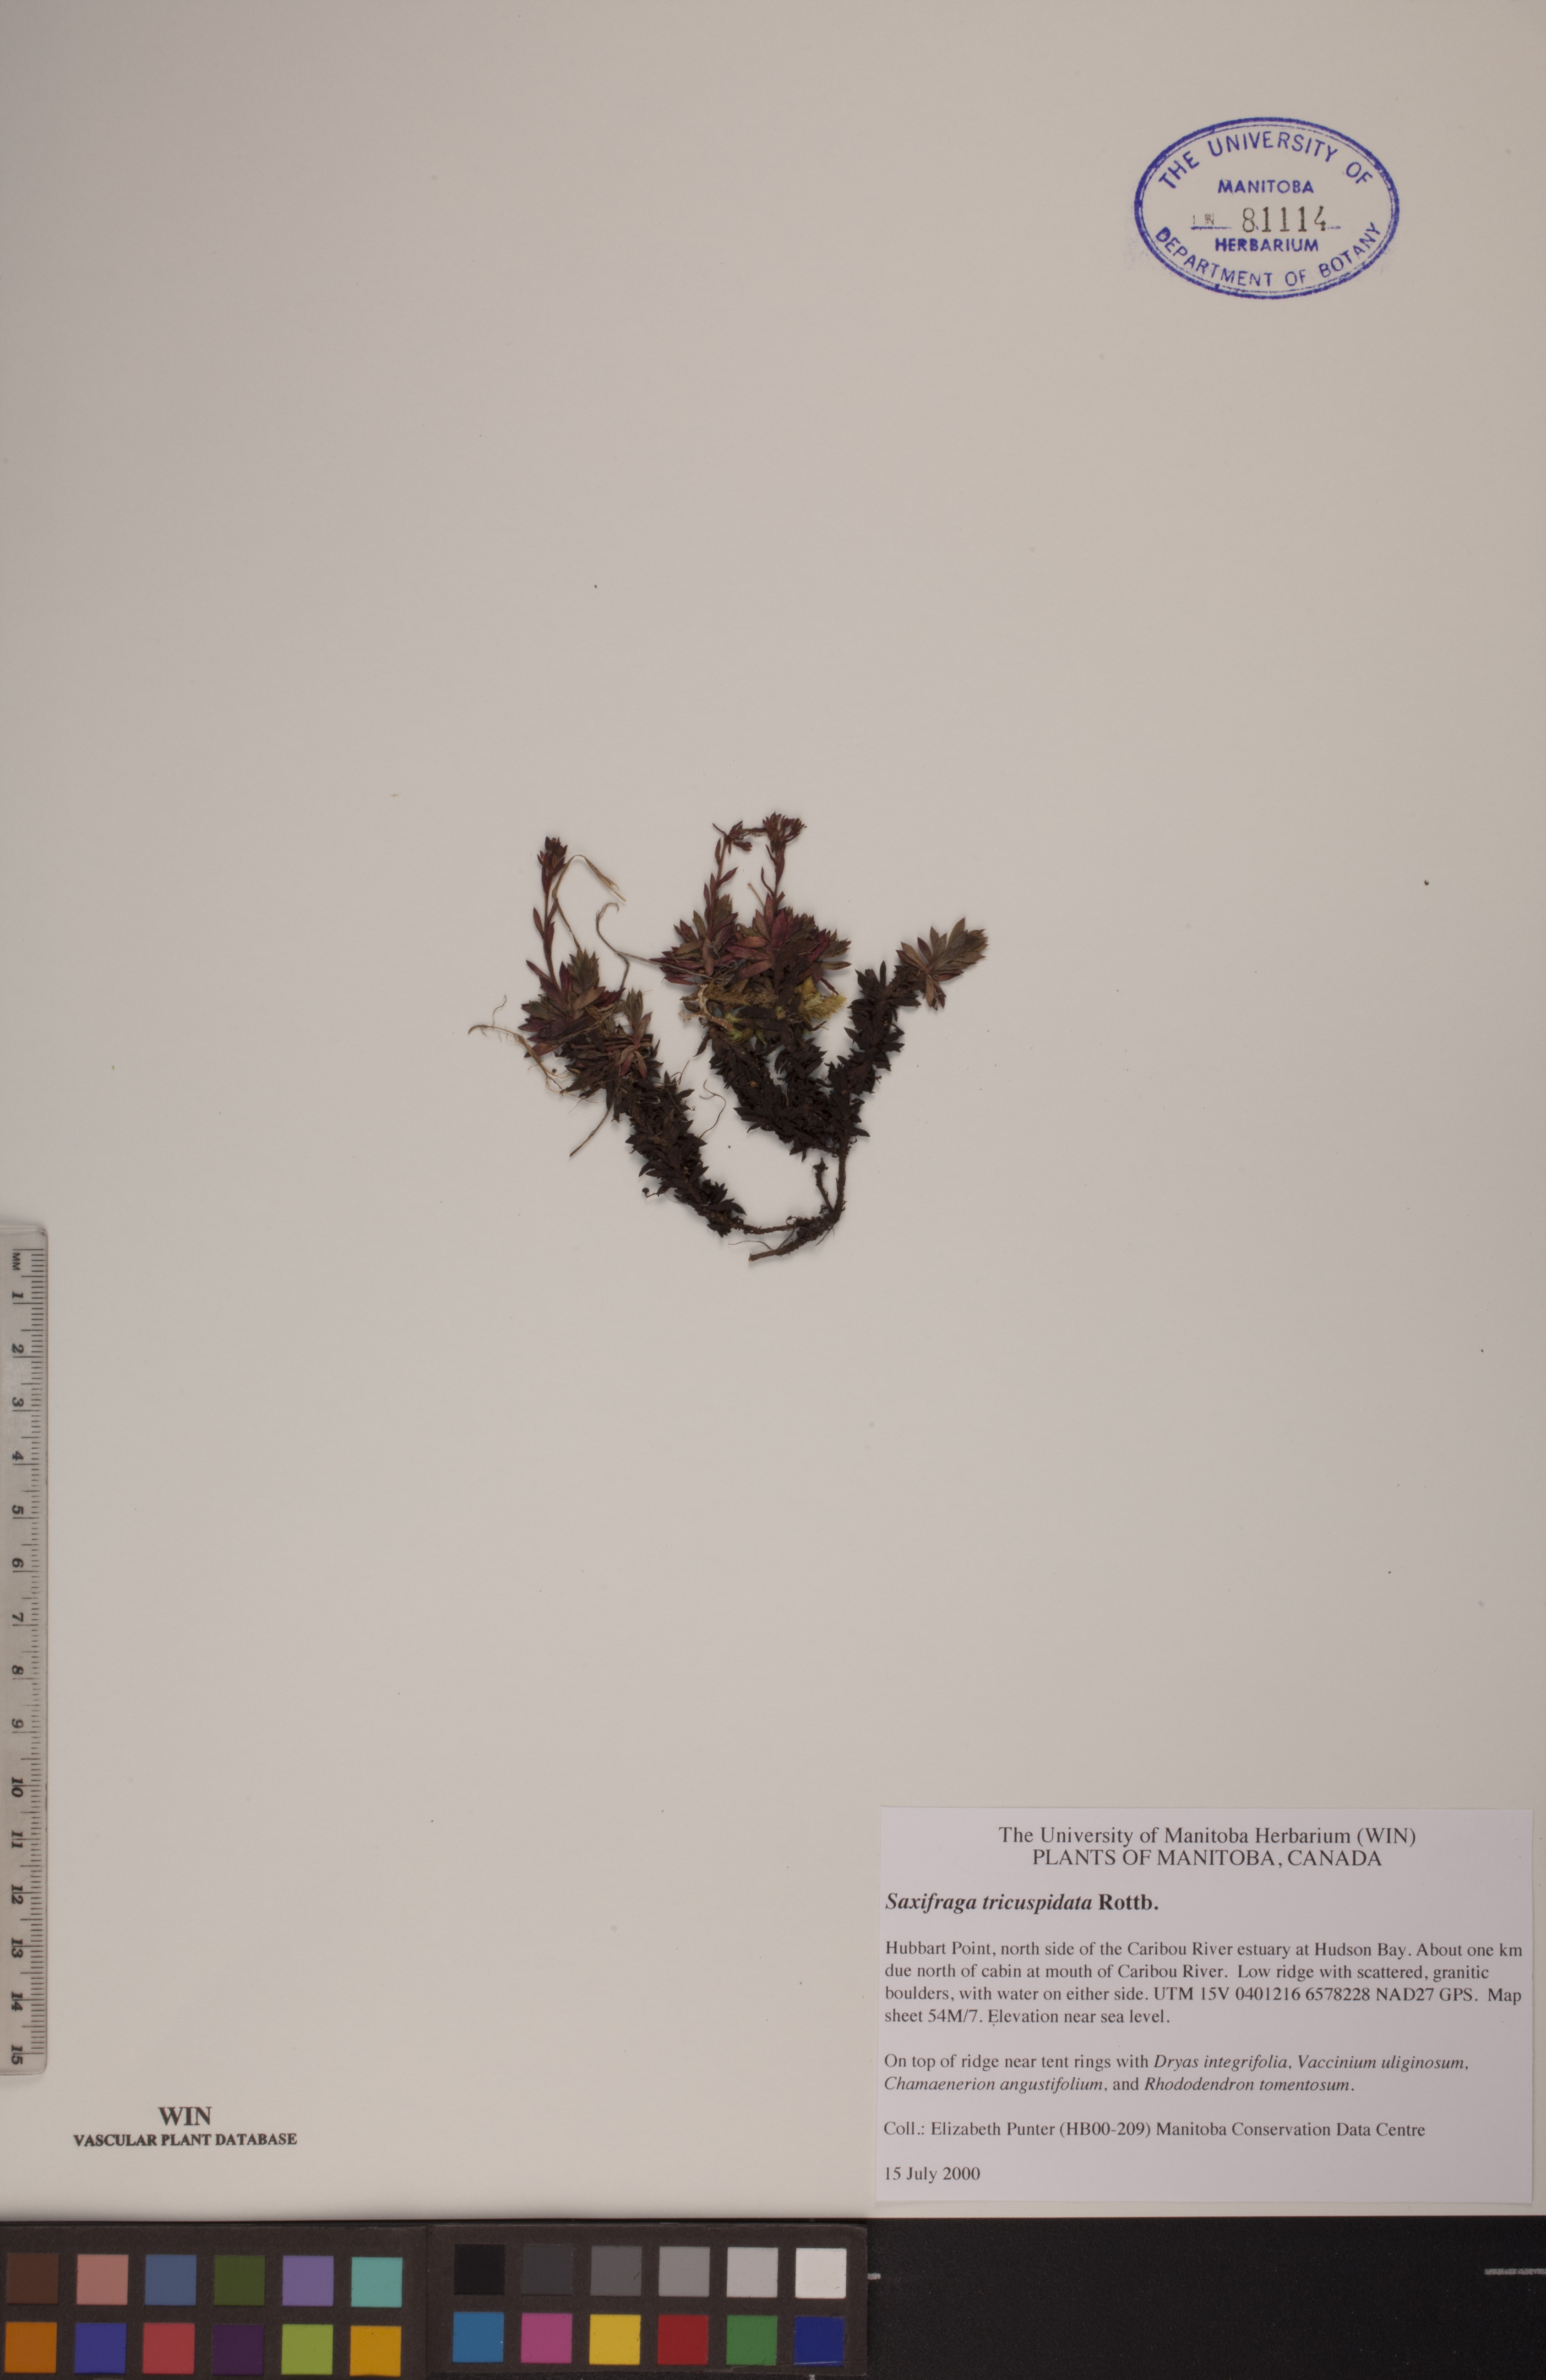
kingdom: Plantae
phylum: Tracheophyta
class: Magnoliopsida
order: Saxifragales
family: Saxifragaceae
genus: Saxifraga
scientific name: Saxifraga tricuspidata
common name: Prickly saxifrage
